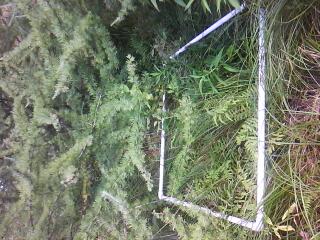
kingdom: Plantae
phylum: Tracheophyta
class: Magnoliopsida
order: Cornales
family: Cornaceae
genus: Cornus
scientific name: Cornus foemina
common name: Swamp dogwood
